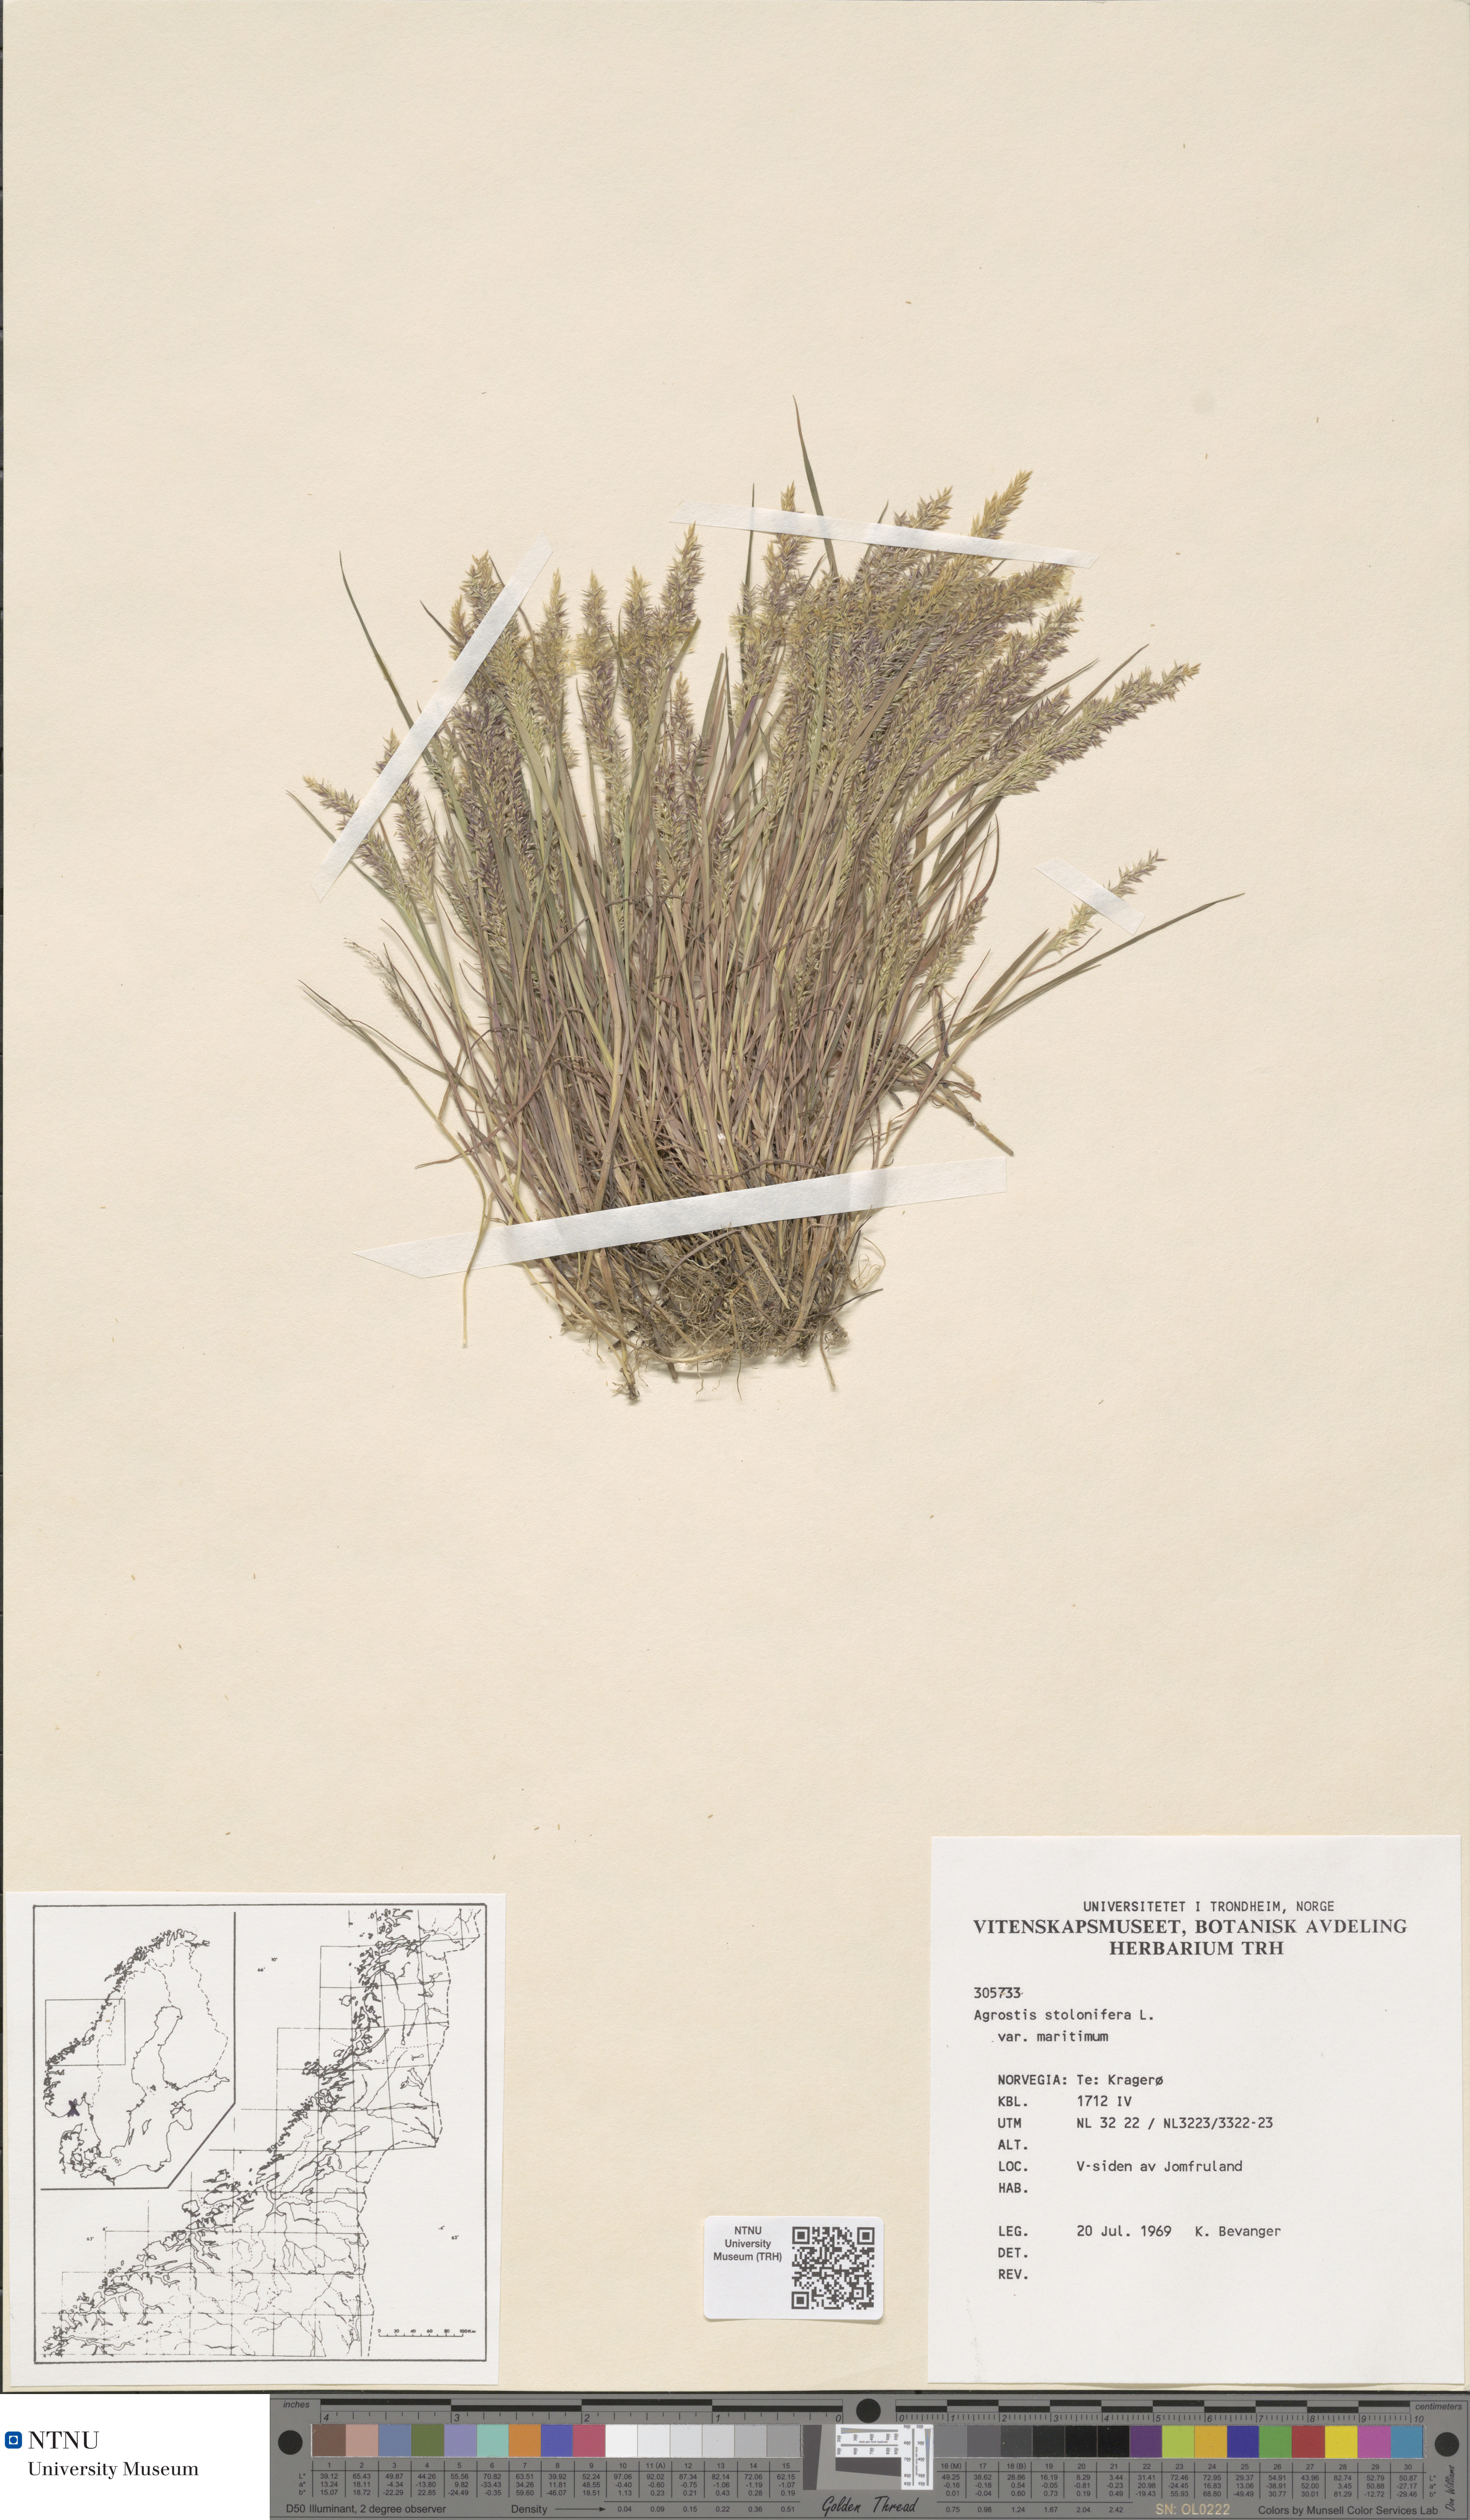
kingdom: Plantae
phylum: Tracheophyta
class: Liliopsida
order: Poales
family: Poaceae
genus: Agrostis
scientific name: Agrostis stolonifera
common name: Creeping bentgrass
